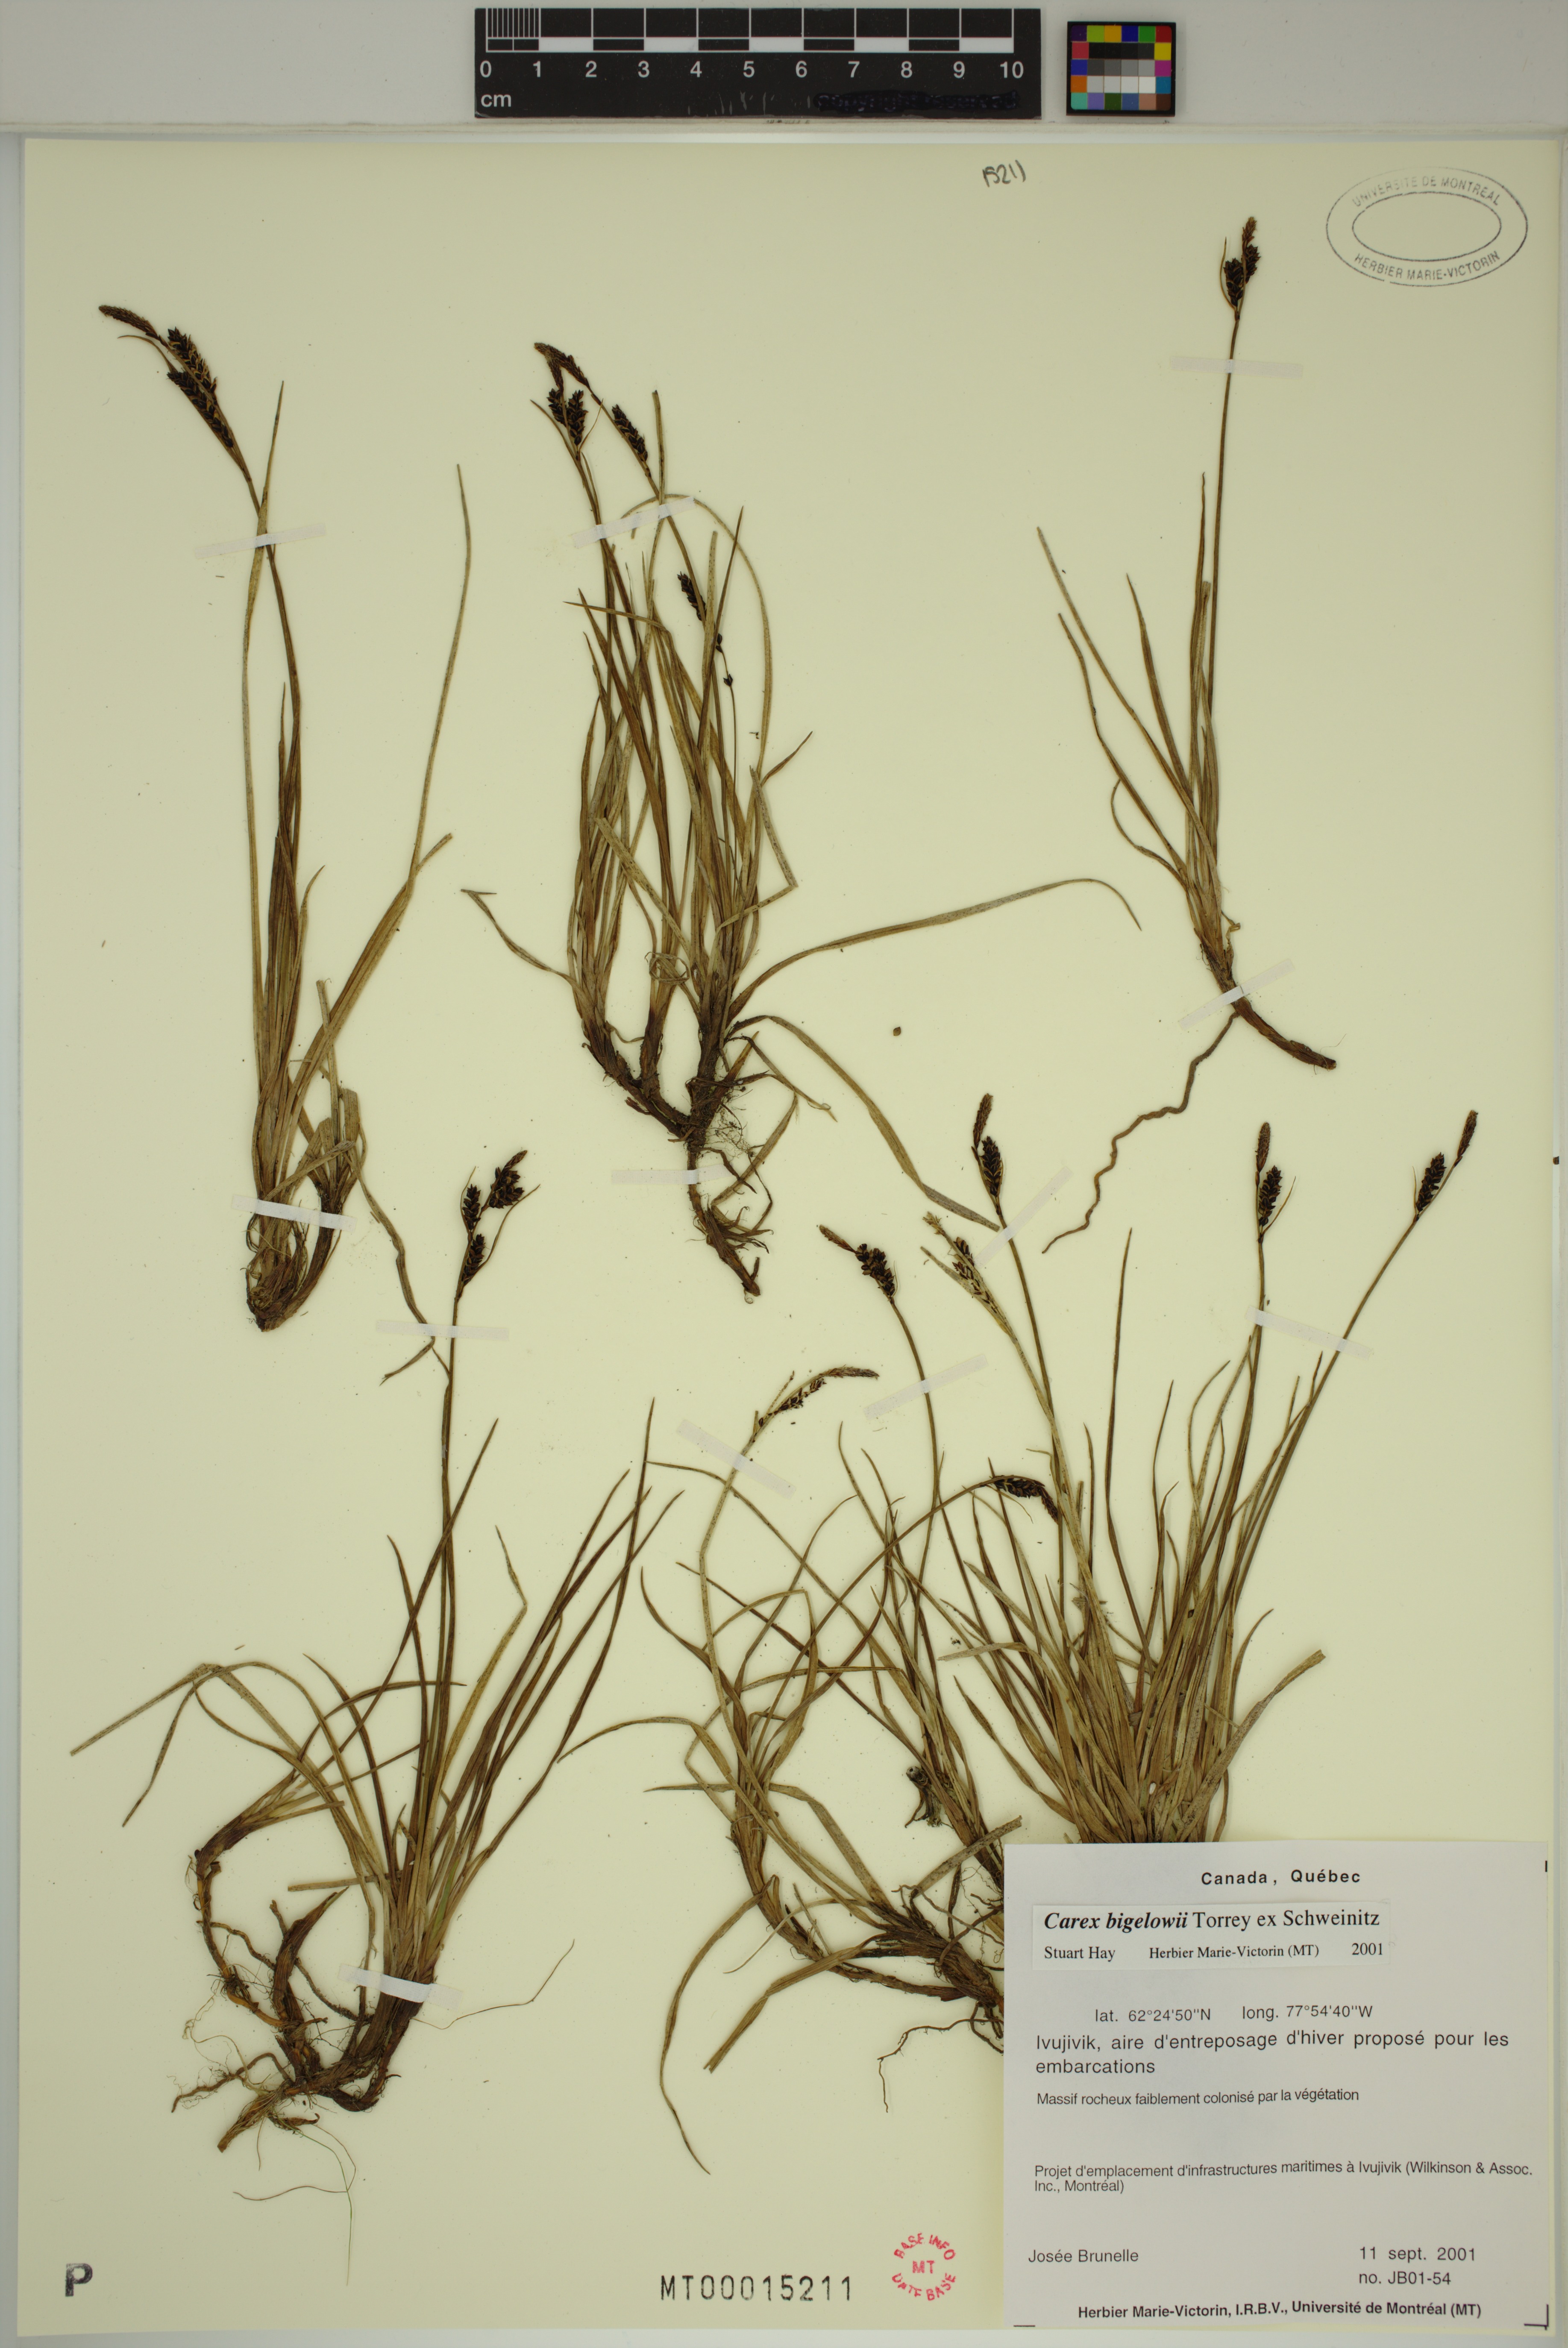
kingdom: Plantae
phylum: Tracheophyta
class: Liliopsida
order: Poales
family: Cyperaceae
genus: Carex
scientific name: Carex bigelowii
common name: Stiff sedge
